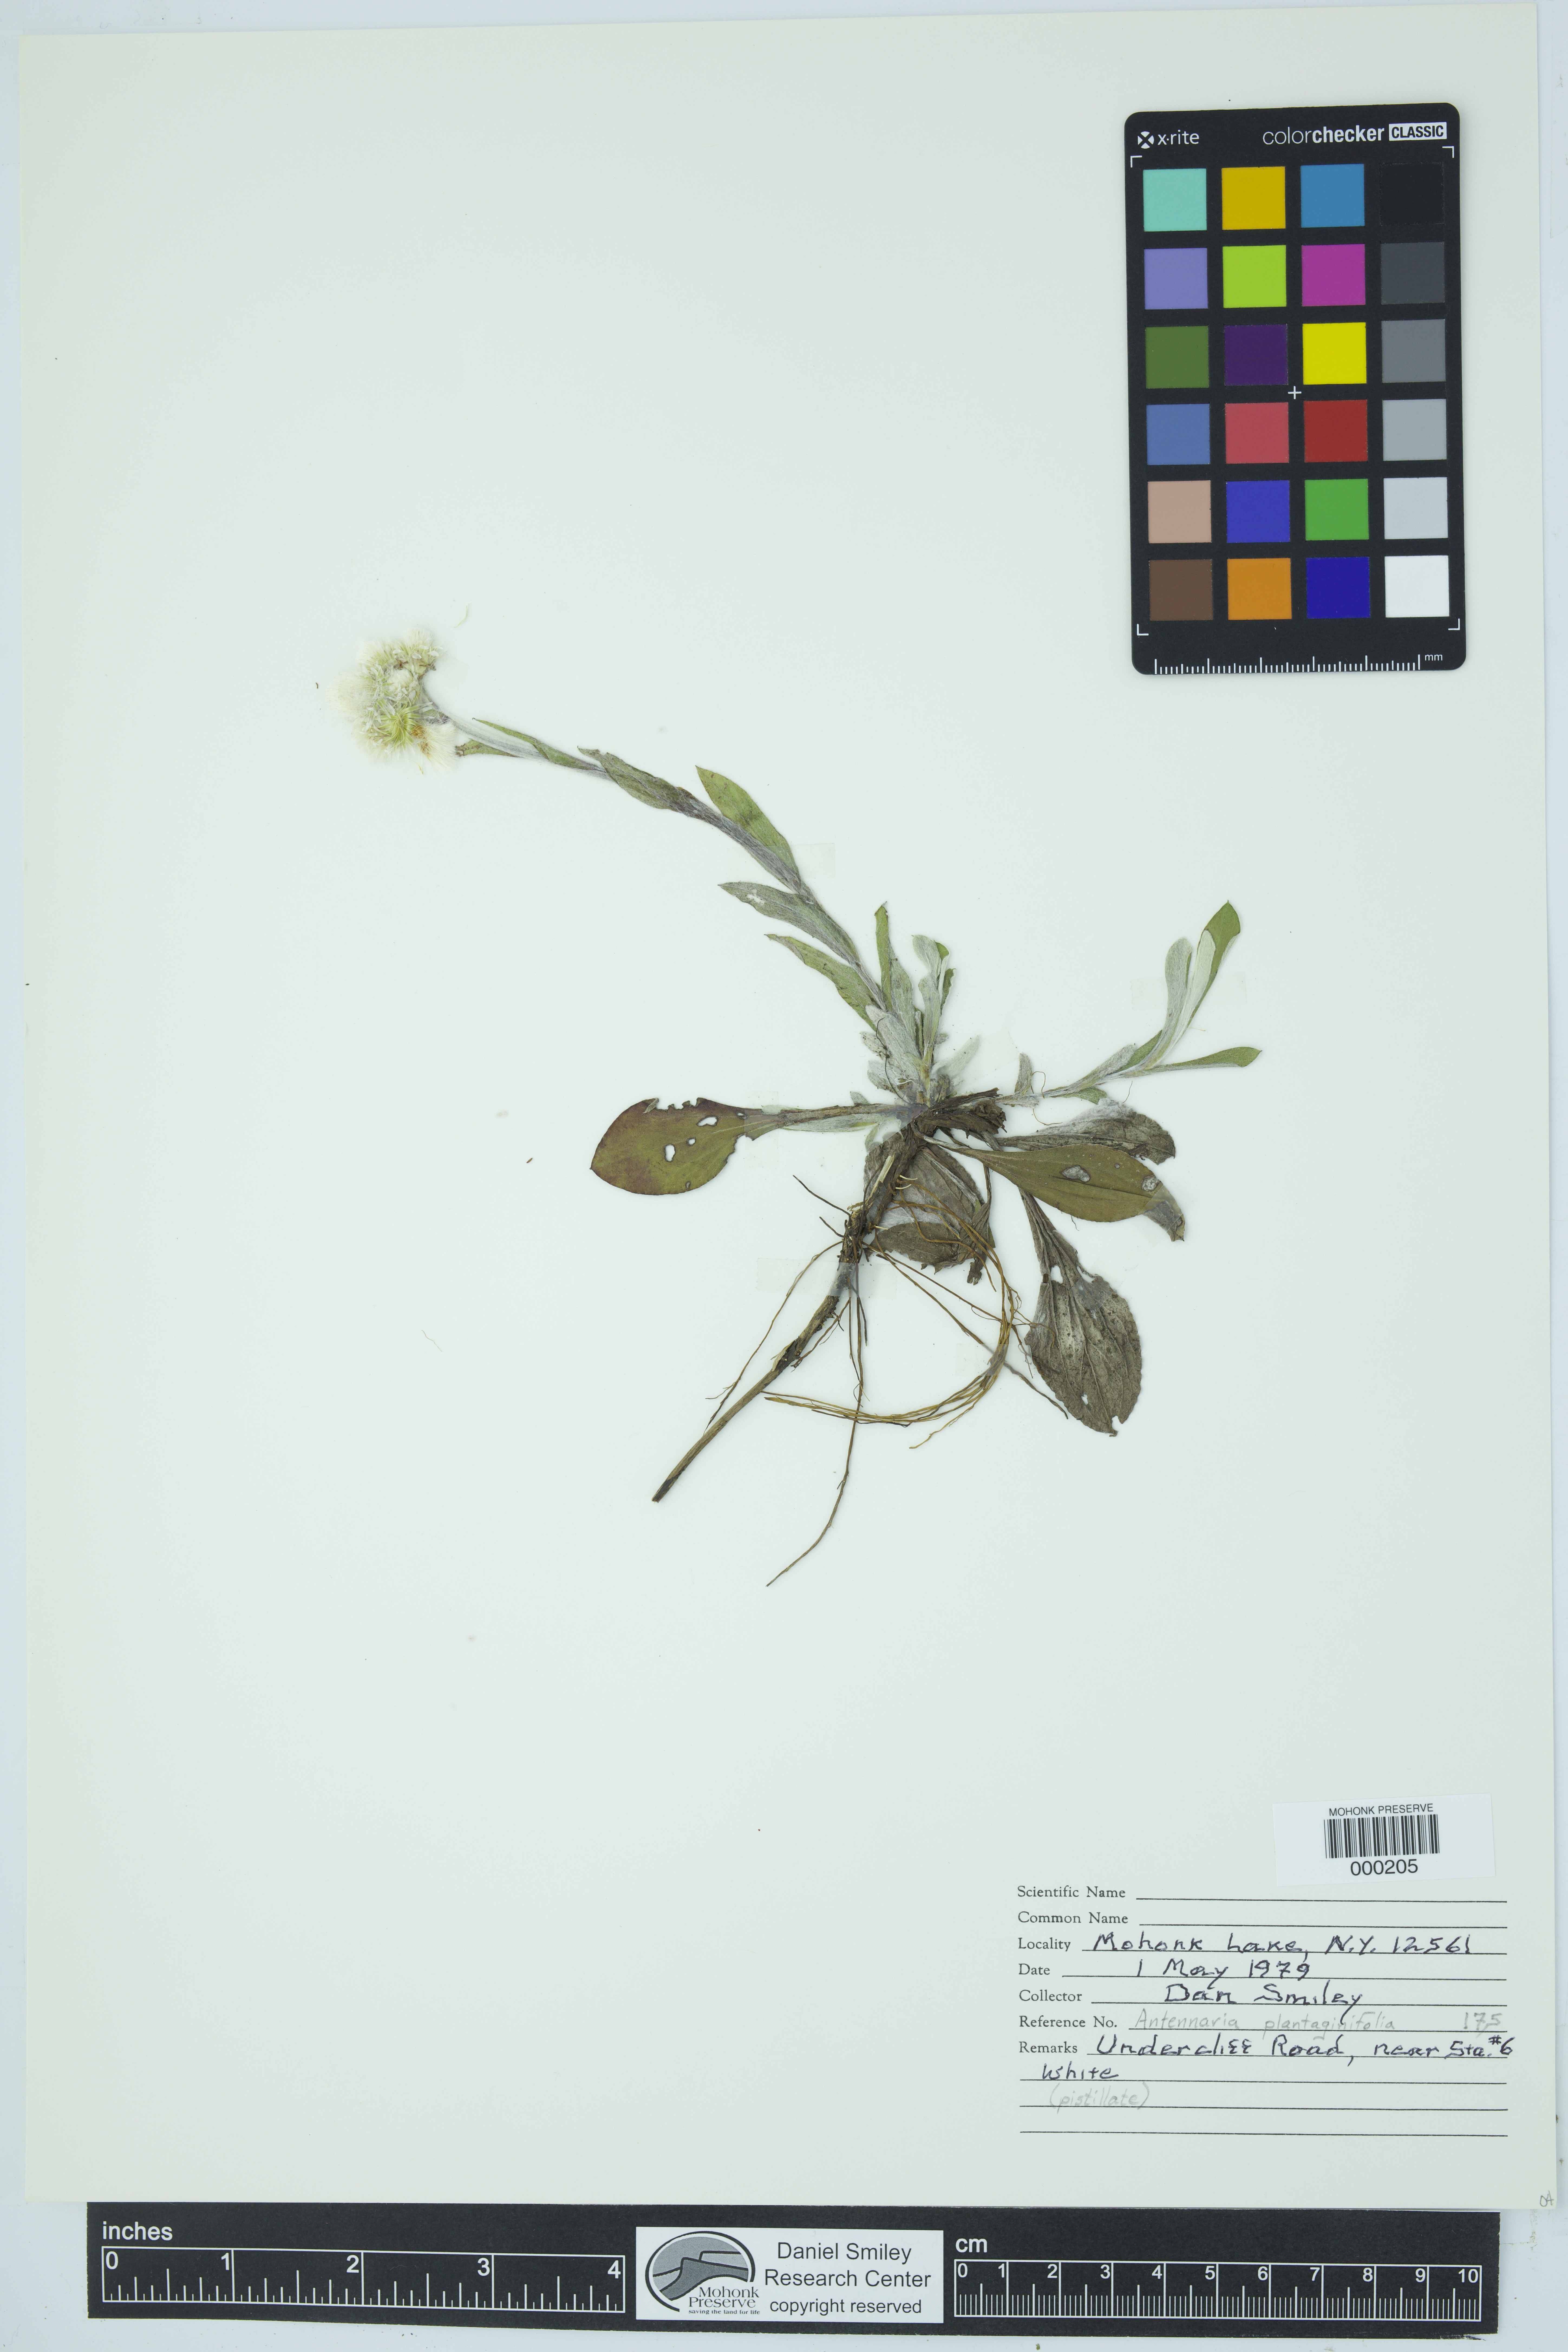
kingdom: Plantae
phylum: Tracheophyta
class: Magnoliopsida
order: Asterales
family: Asteraceae
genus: Antennaria
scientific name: Antennaria plantaginifolia
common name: Plantain-leaved pussytoes
